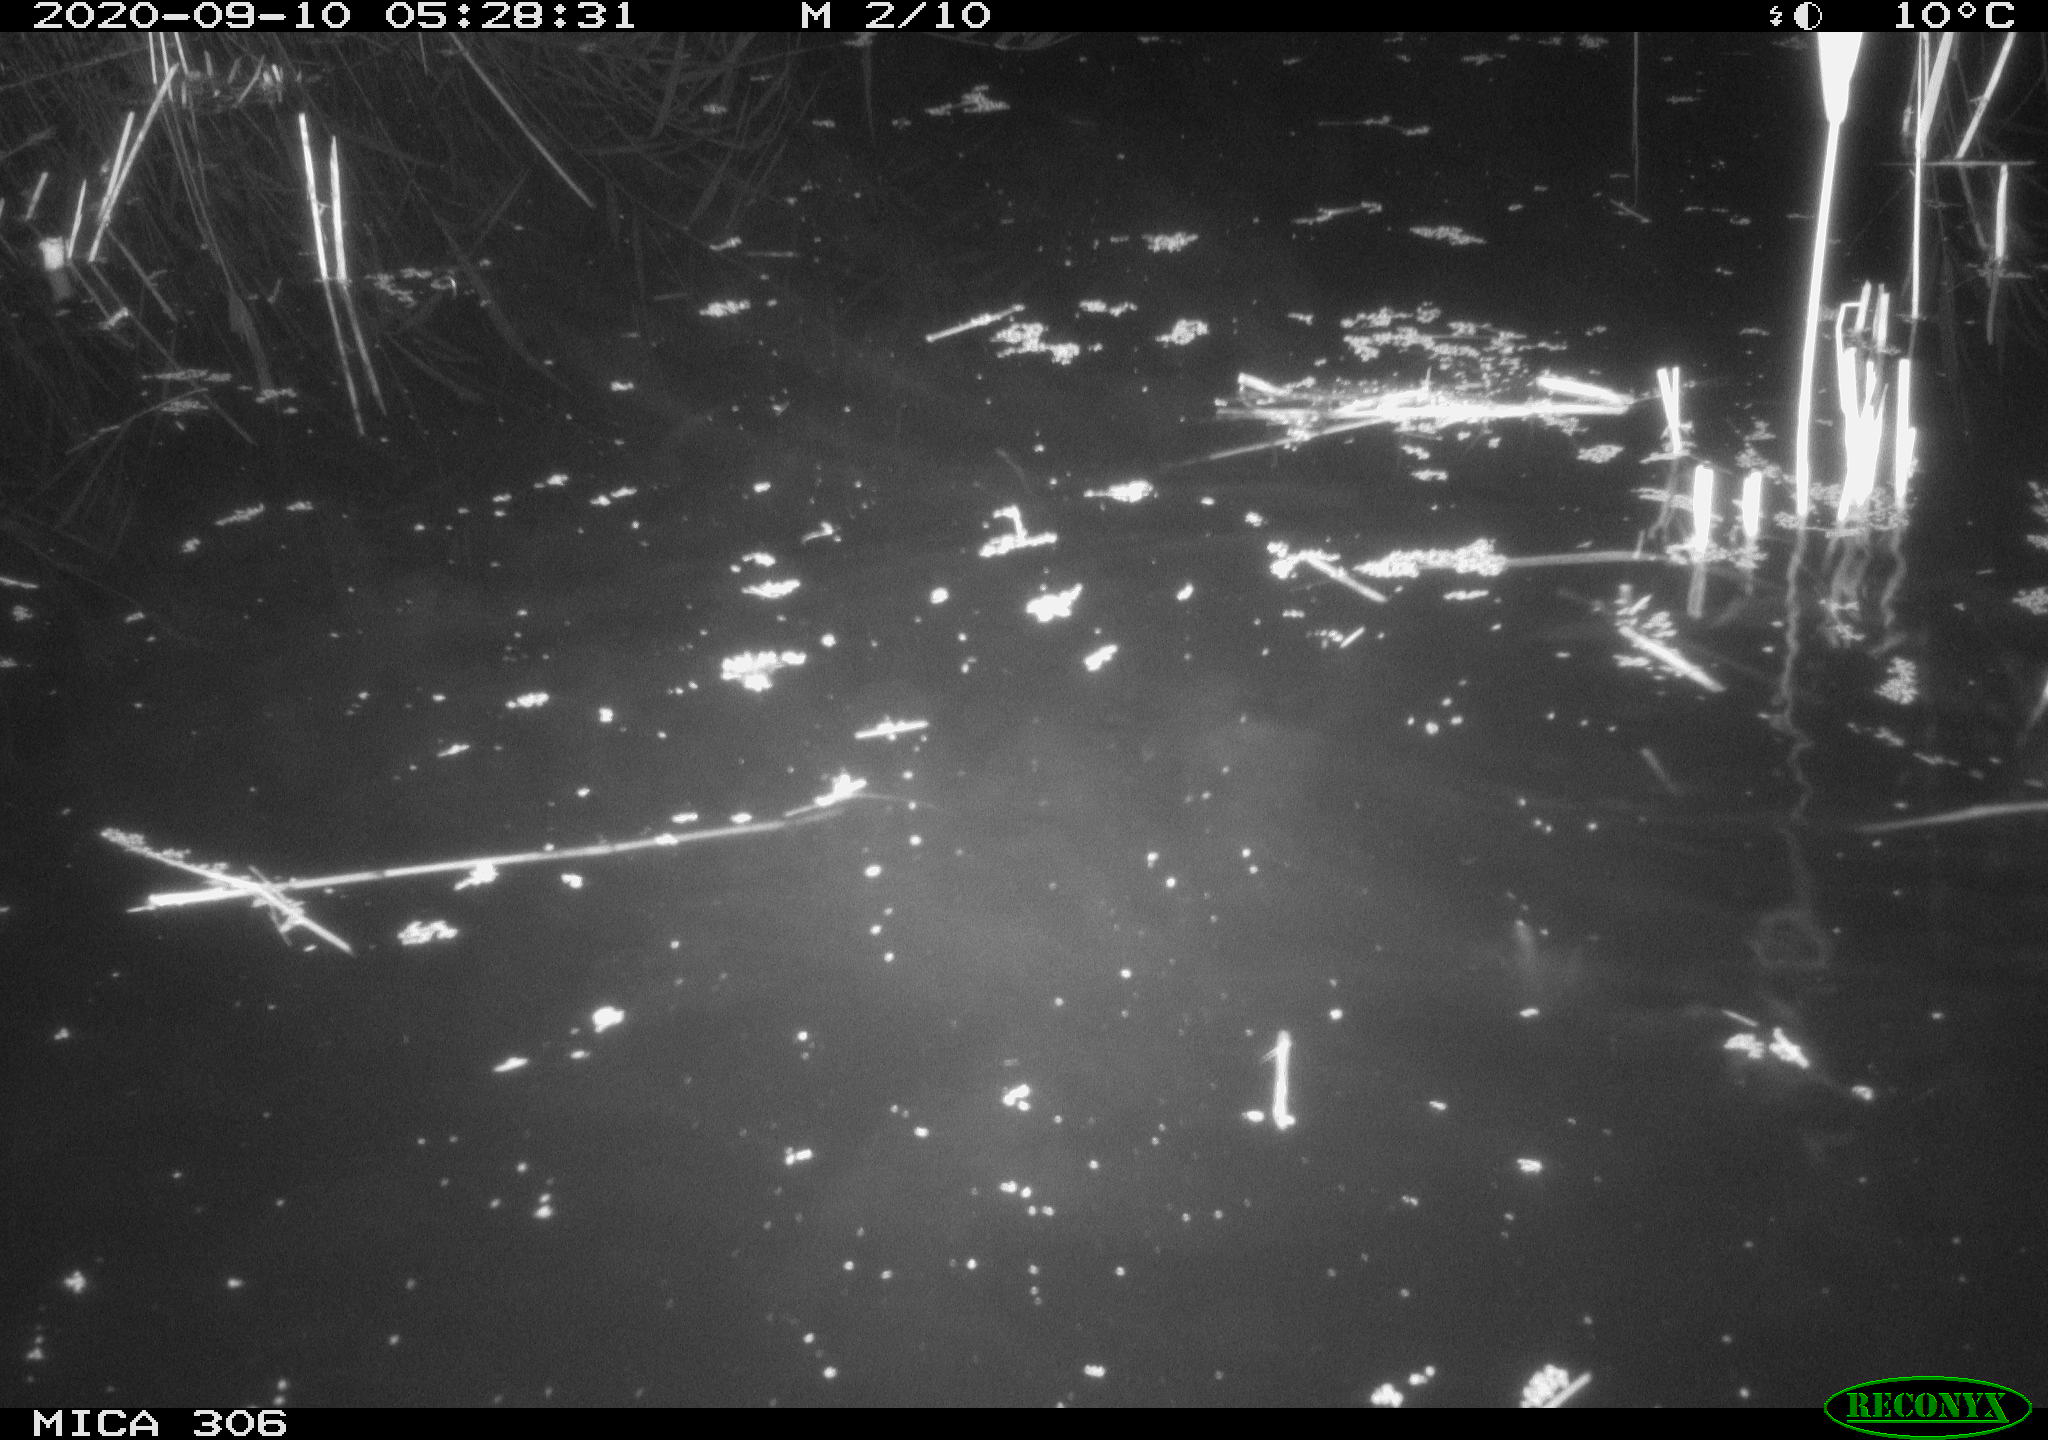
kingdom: Animalia
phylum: Chordata
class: Mammalia
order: Rodentia
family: Muridae
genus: Rattus
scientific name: Rattus norvegicus
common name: Brown rat
